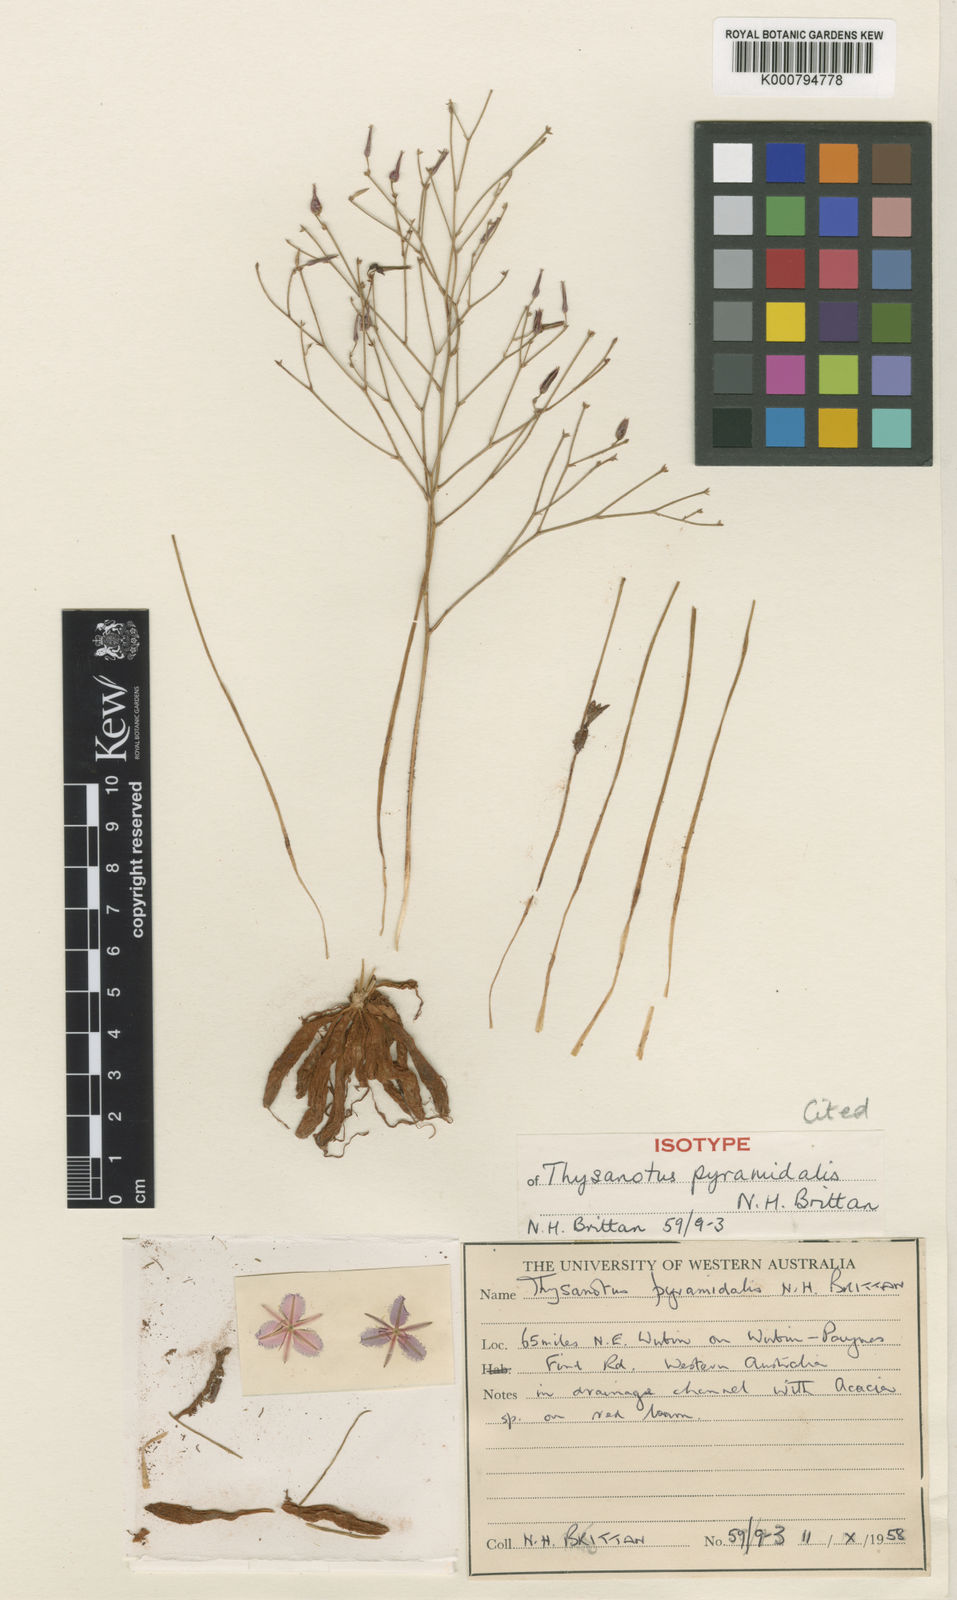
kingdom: Plantae
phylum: Tracheophyta
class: Liliopsida
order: Asparagales
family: Asparagaceae
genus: Thysanotus
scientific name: Thysanotus pyramidalis
